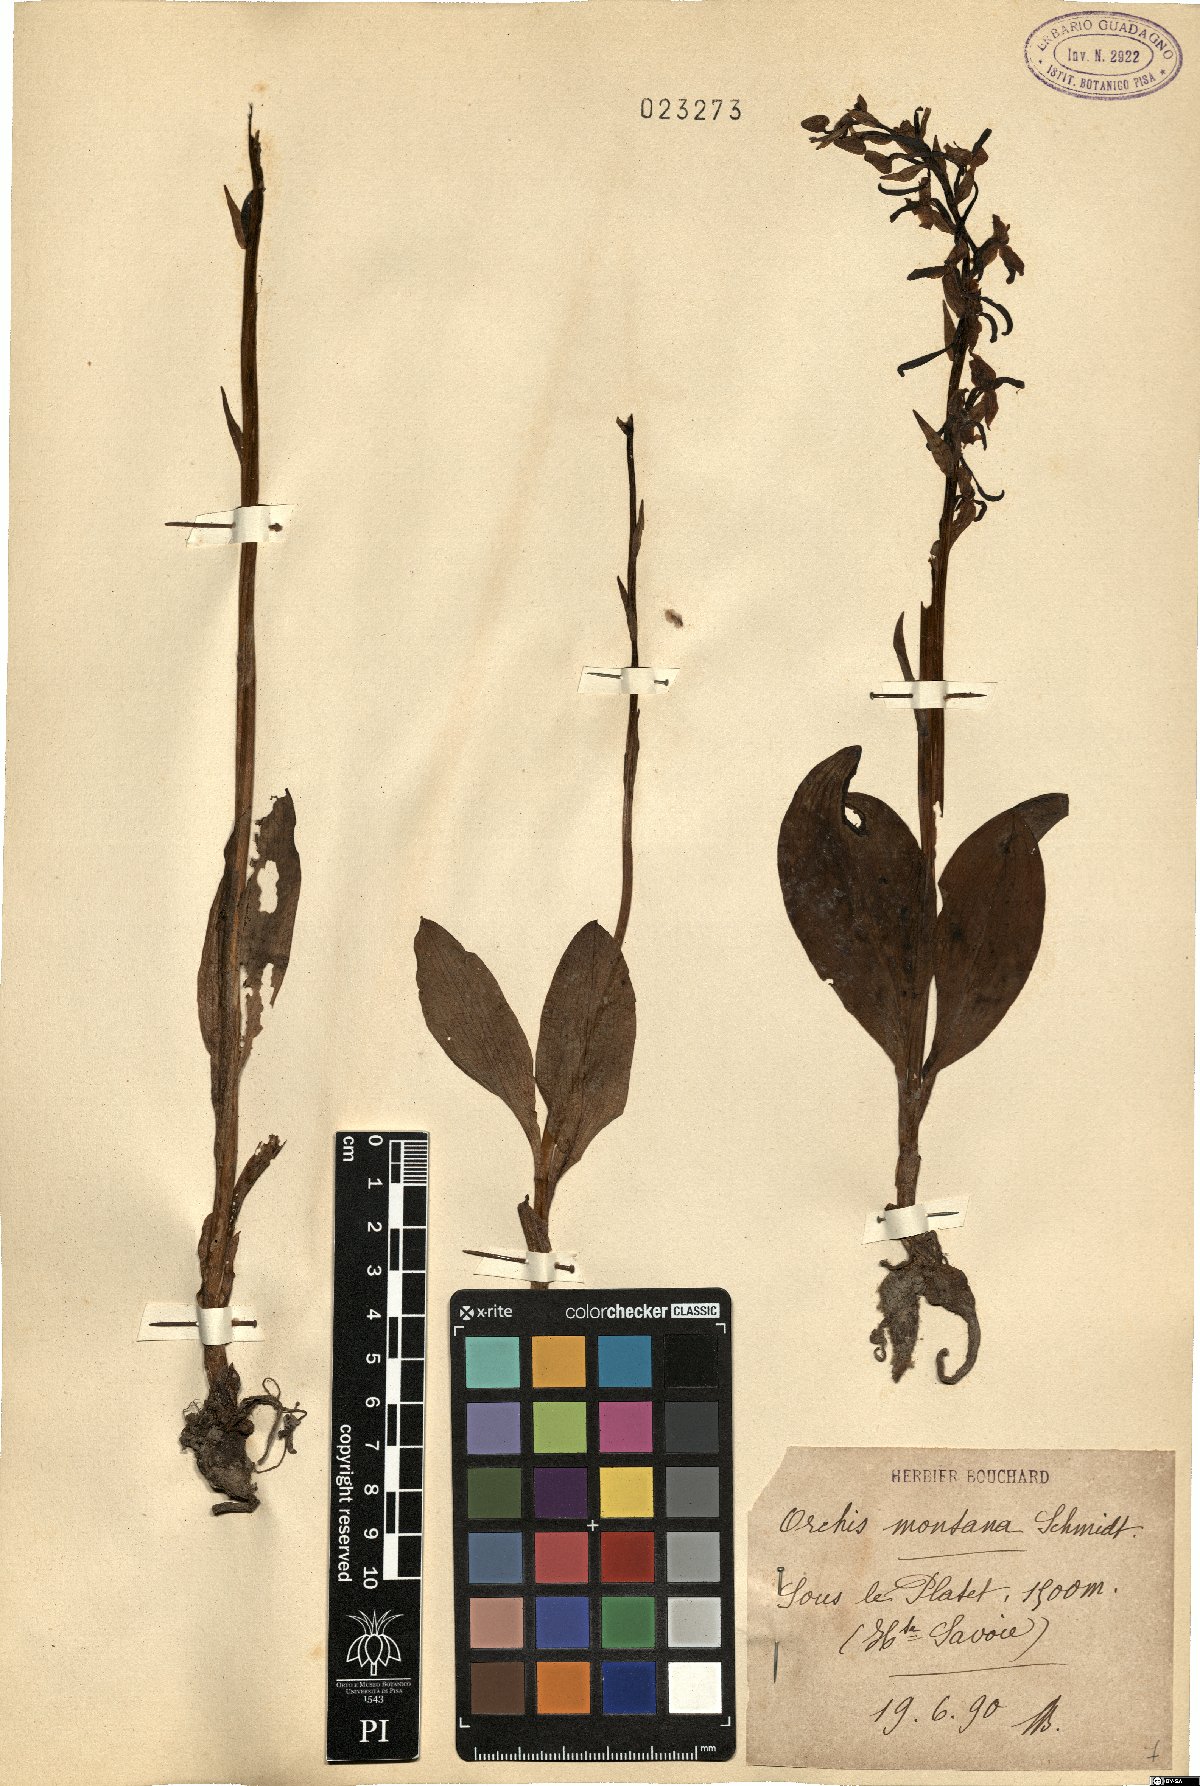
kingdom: Plantae
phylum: Tracheophyta
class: Liliopsida
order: Asparagales
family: Orchidaceae
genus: Platanthera
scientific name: Platanthera chlorantha
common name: Greater butterfly-orchid
